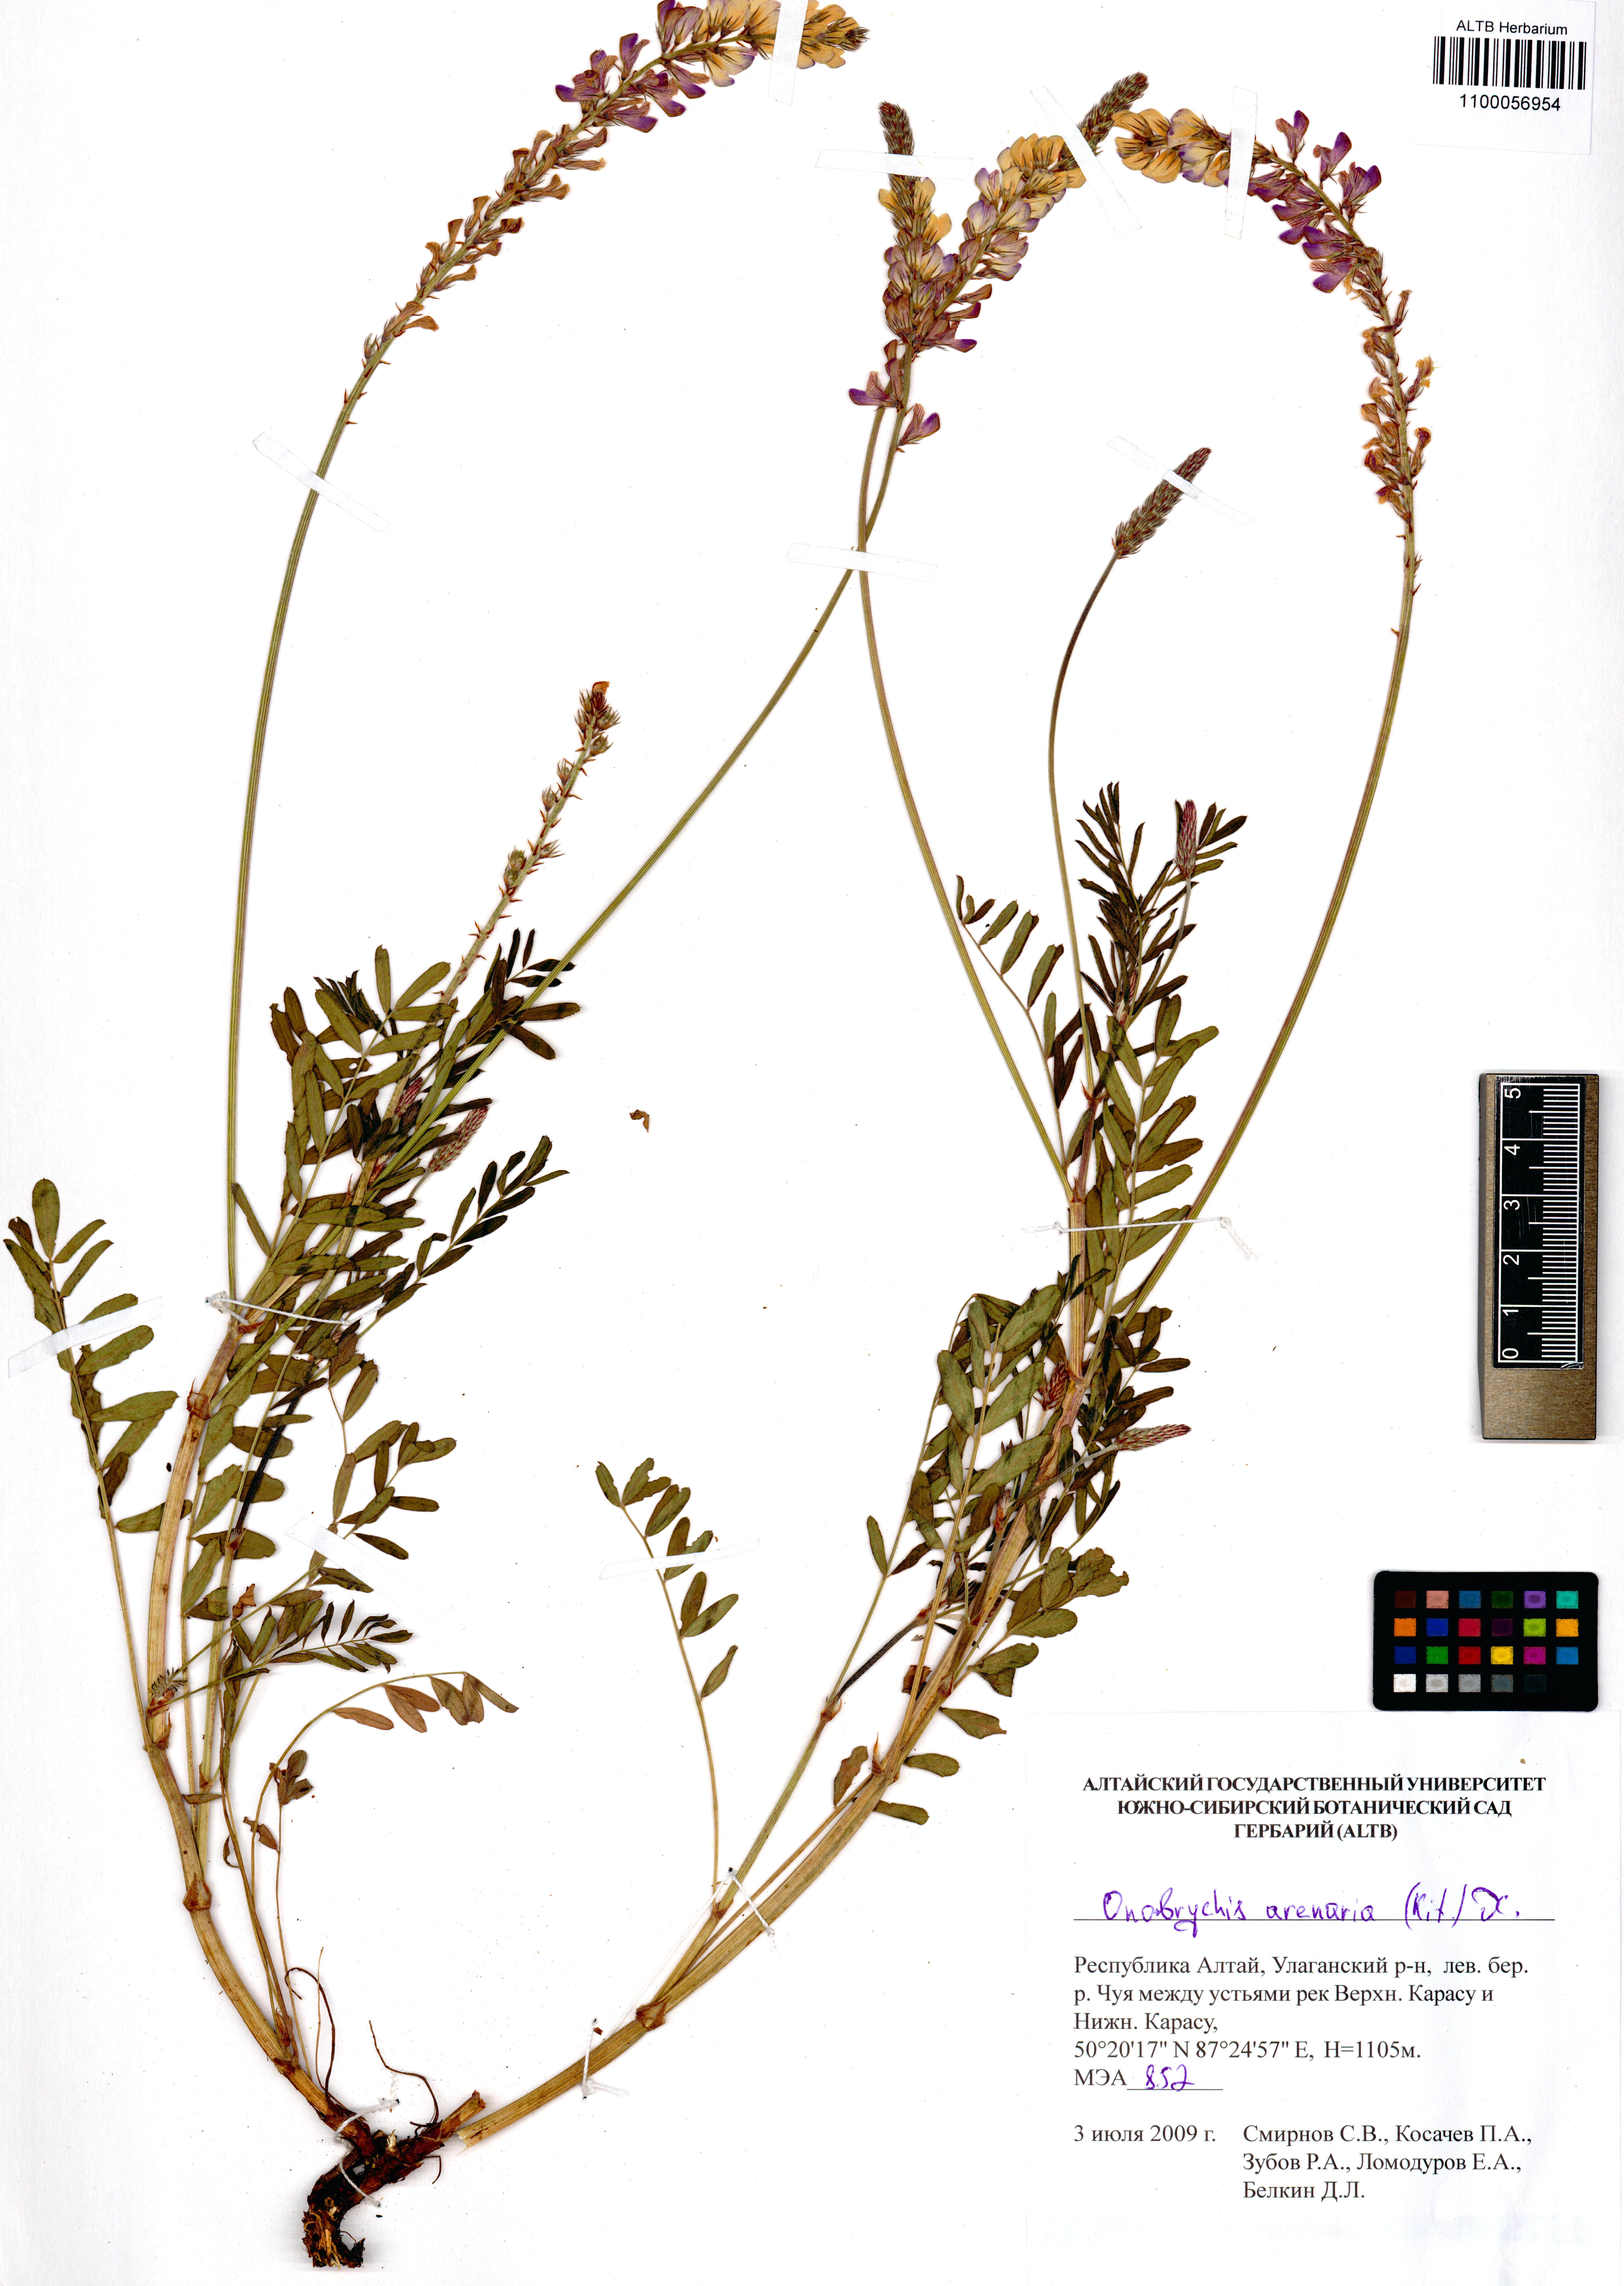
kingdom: Plantae
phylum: Tracheophyta
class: Magnoliopsida
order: Fabales
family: Fabaceae
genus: Onobrychis
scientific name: Onobrychis arenaria
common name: Sand esparcet
